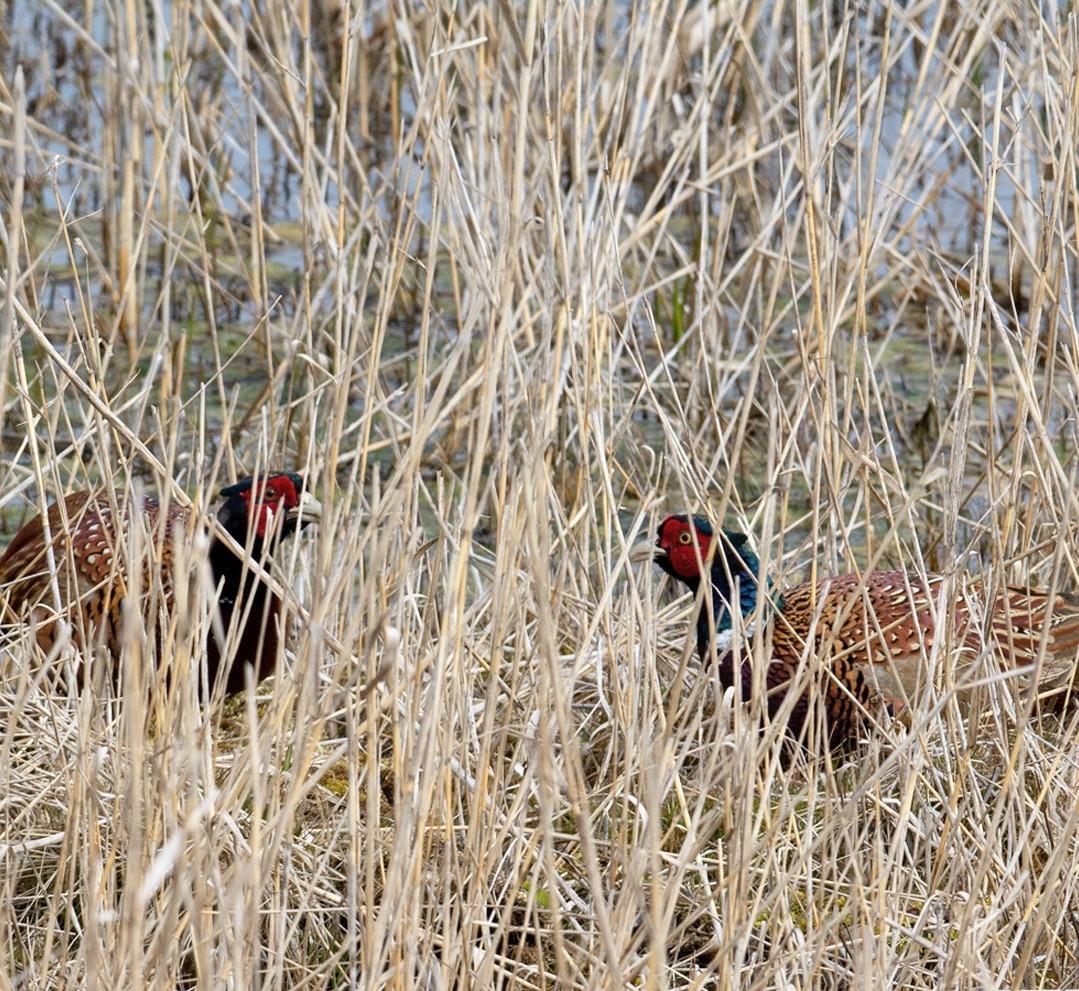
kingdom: Animalia
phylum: Chordata
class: Aves
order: Galliformes
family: Phasianidae
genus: Phasianus
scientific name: Phasianus colchicus
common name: Fasan
